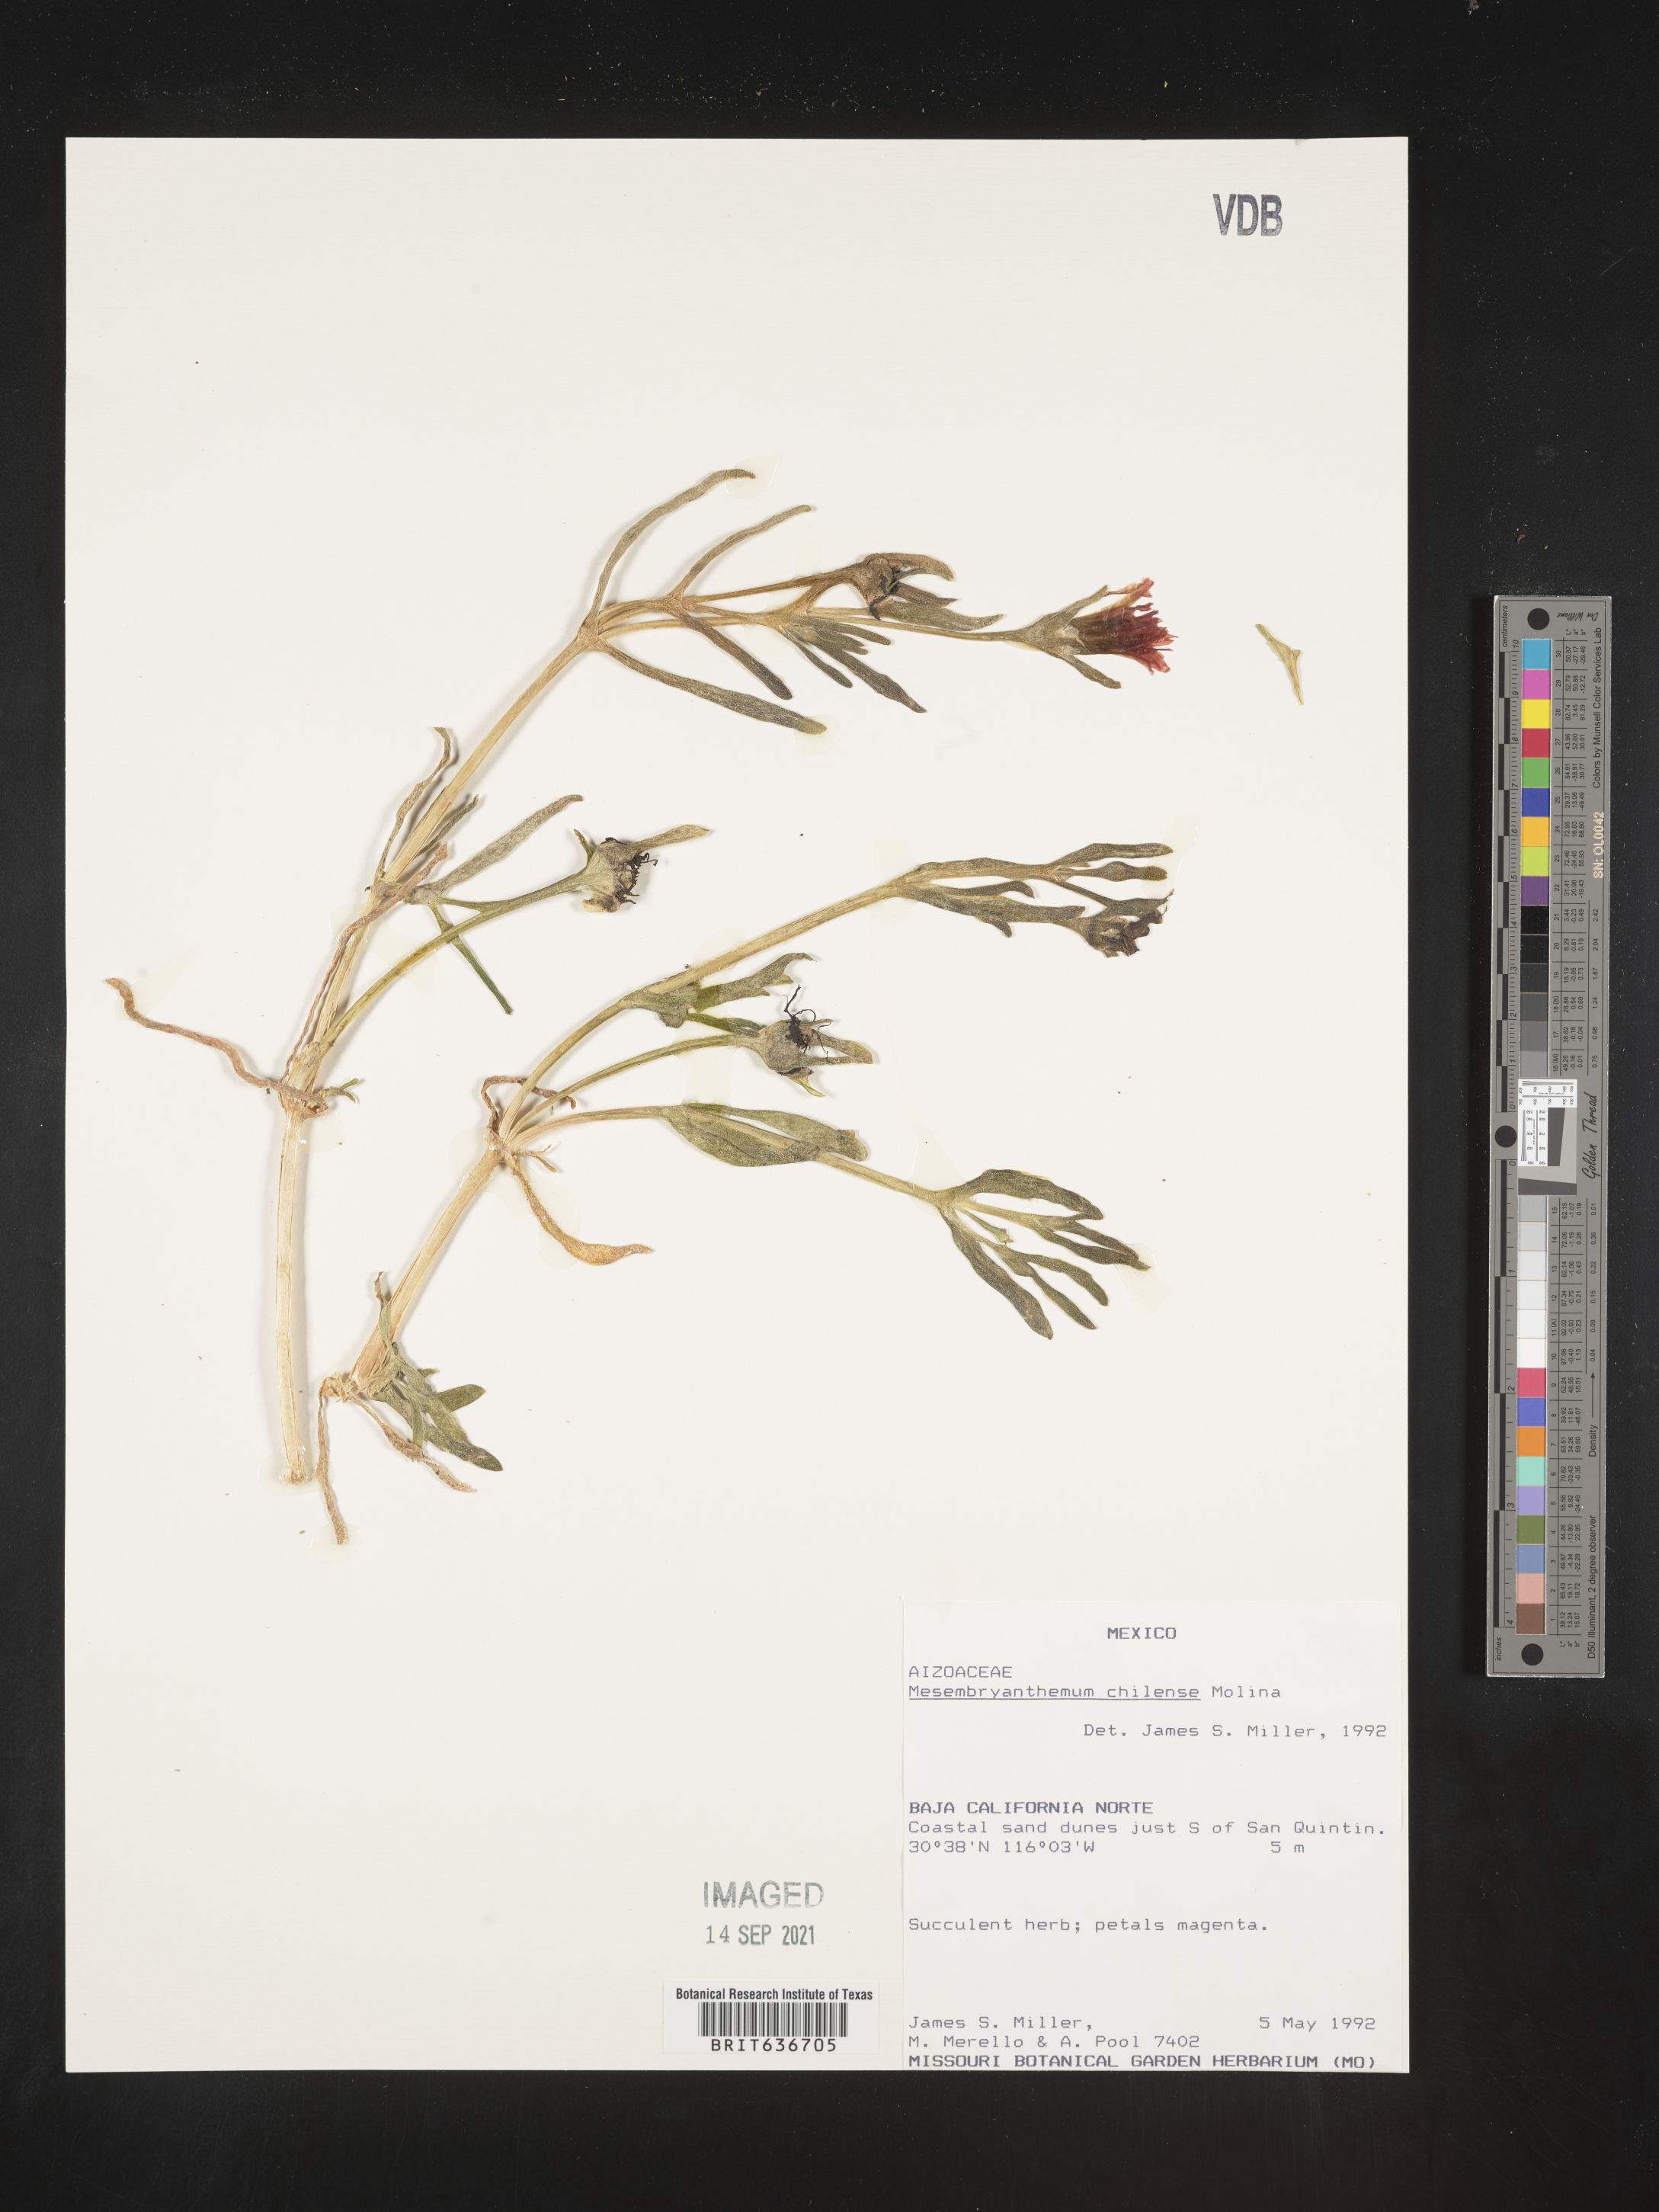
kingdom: Plantae
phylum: Tracheophyta
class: Magnoliopsida
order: Caryophyllales
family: Molluginaceae
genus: Mollugo
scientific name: Mollugo
